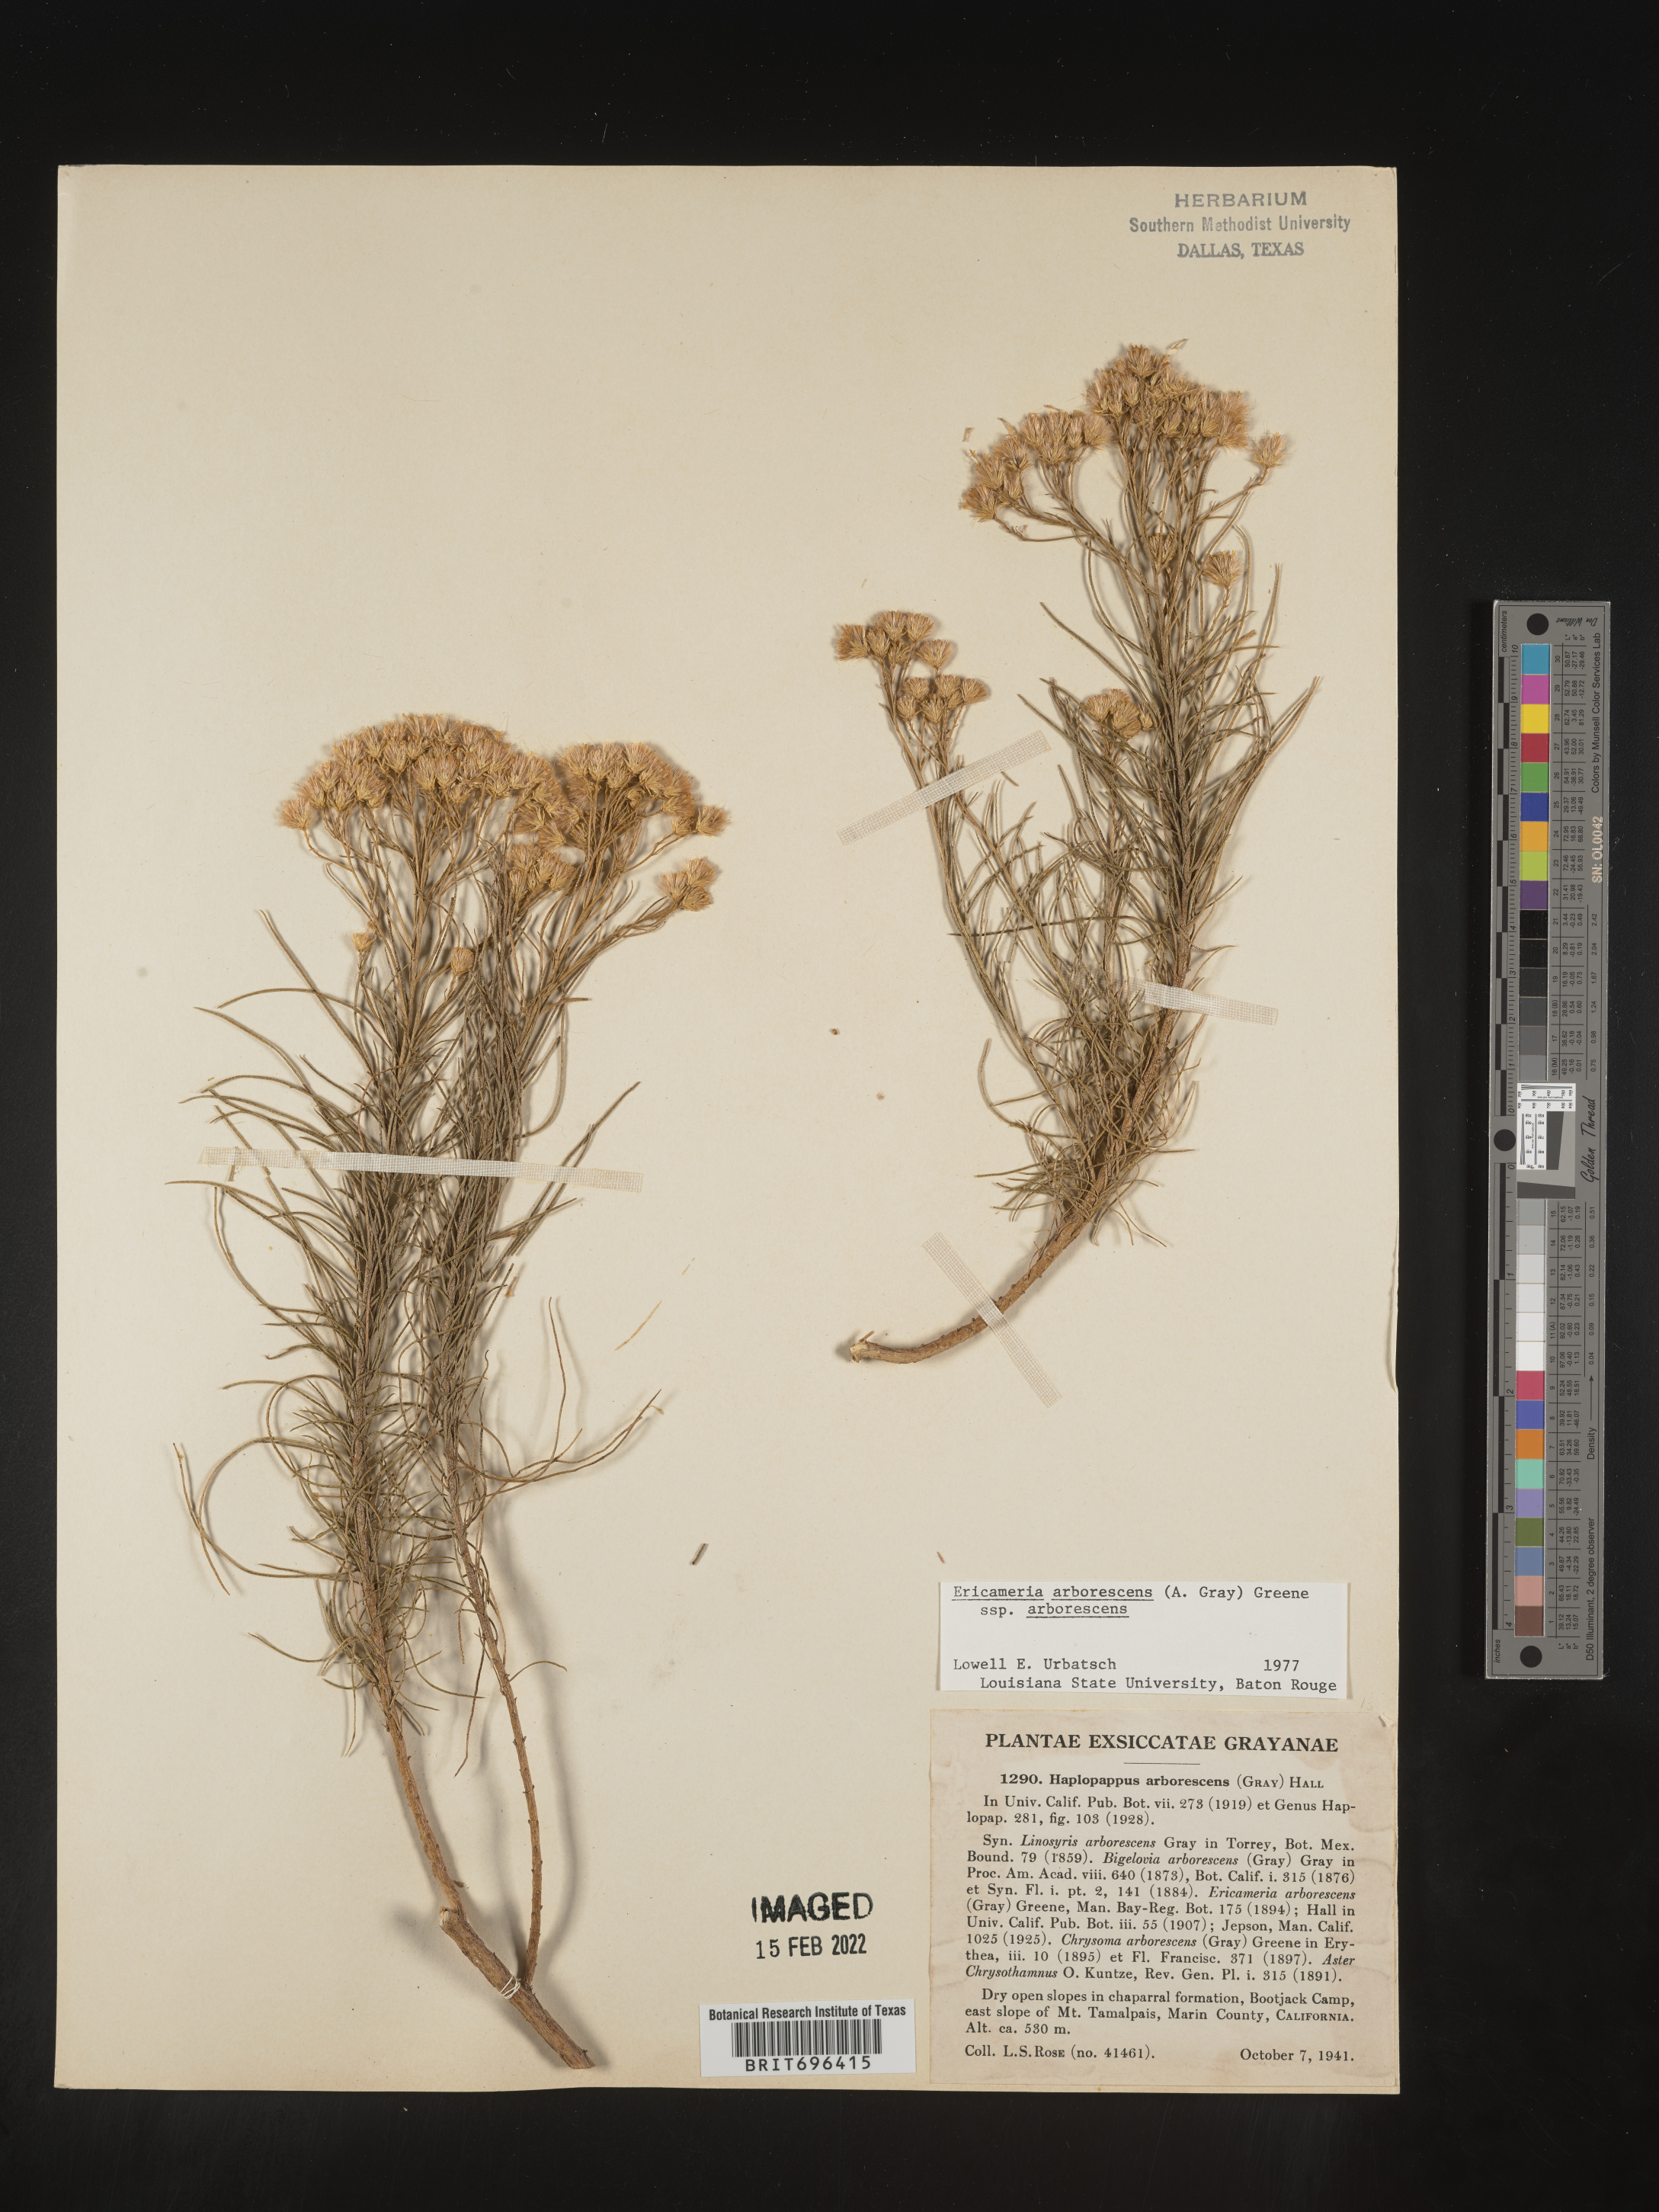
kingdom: Plantae
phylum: Tracheophyta
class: Magnoliopsida
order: Asterales
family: Asteraceae
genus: Ericameria
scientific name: Ericameria arborescens
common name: Goldenfleece
